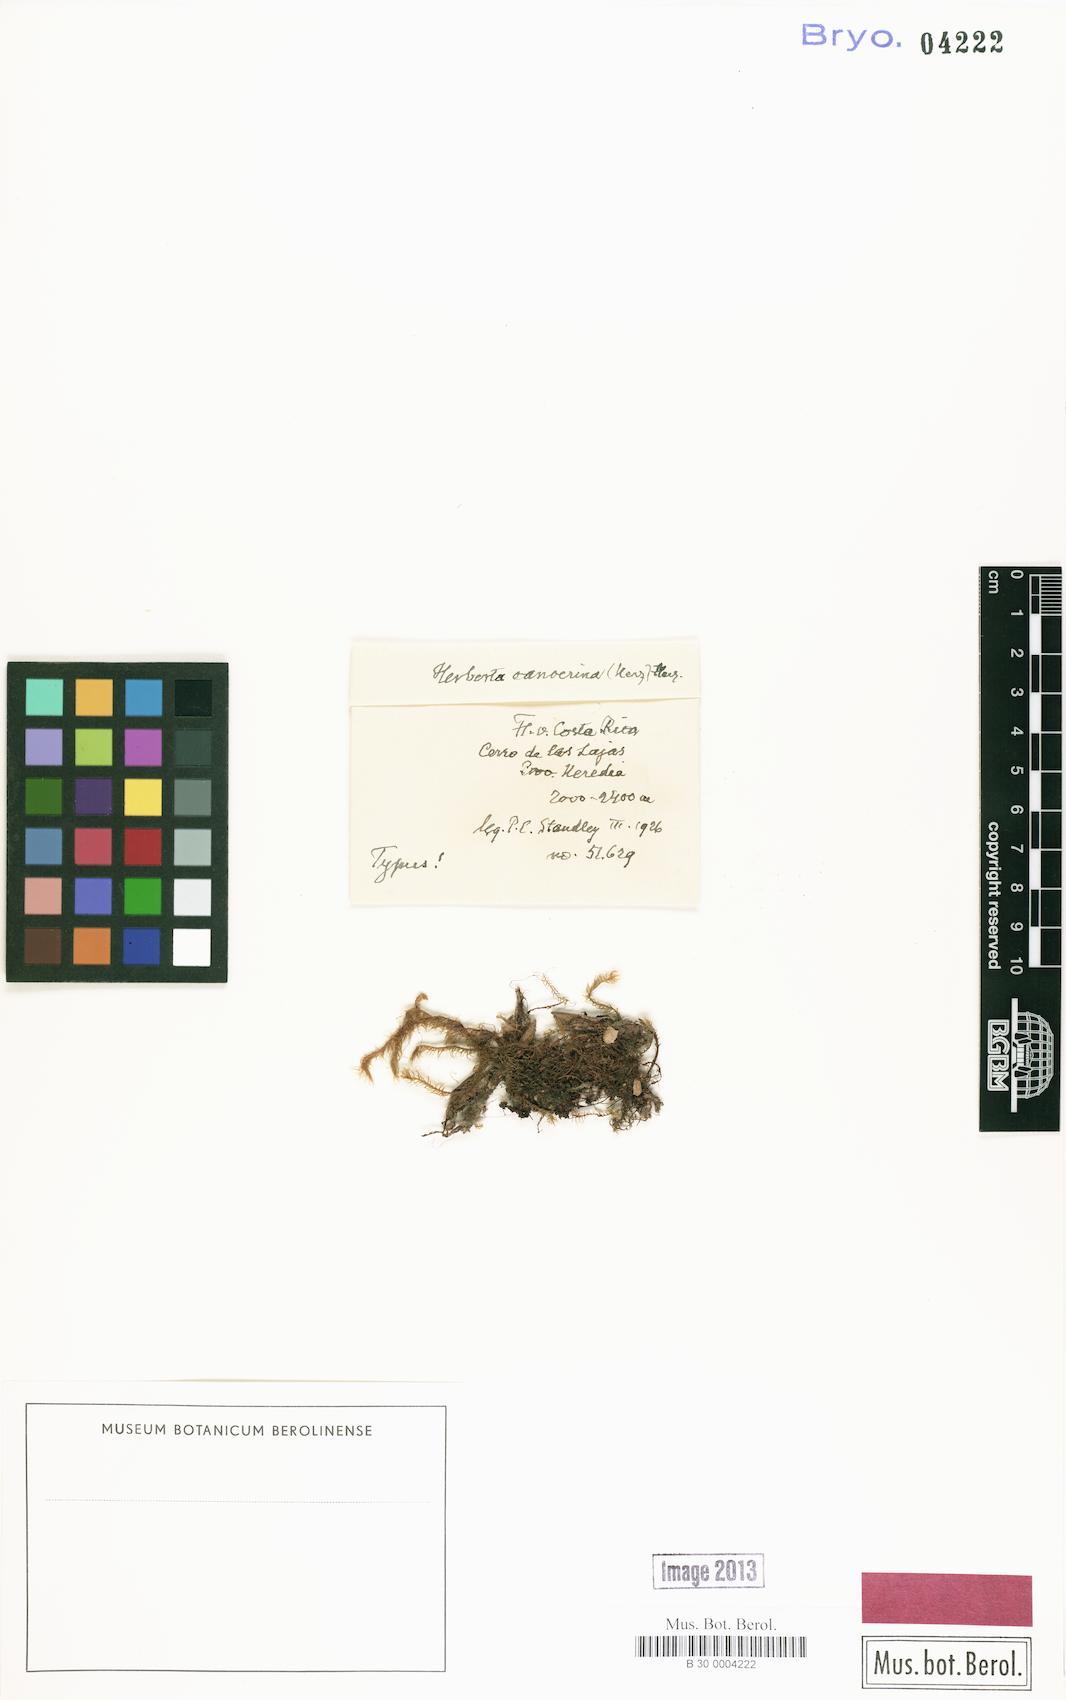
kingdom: Plantae
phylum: Marchantiophyta
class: Jungermanniopsida
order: Jungermanniales
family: Herbertaceae
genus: Herberta
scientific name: Herberta
